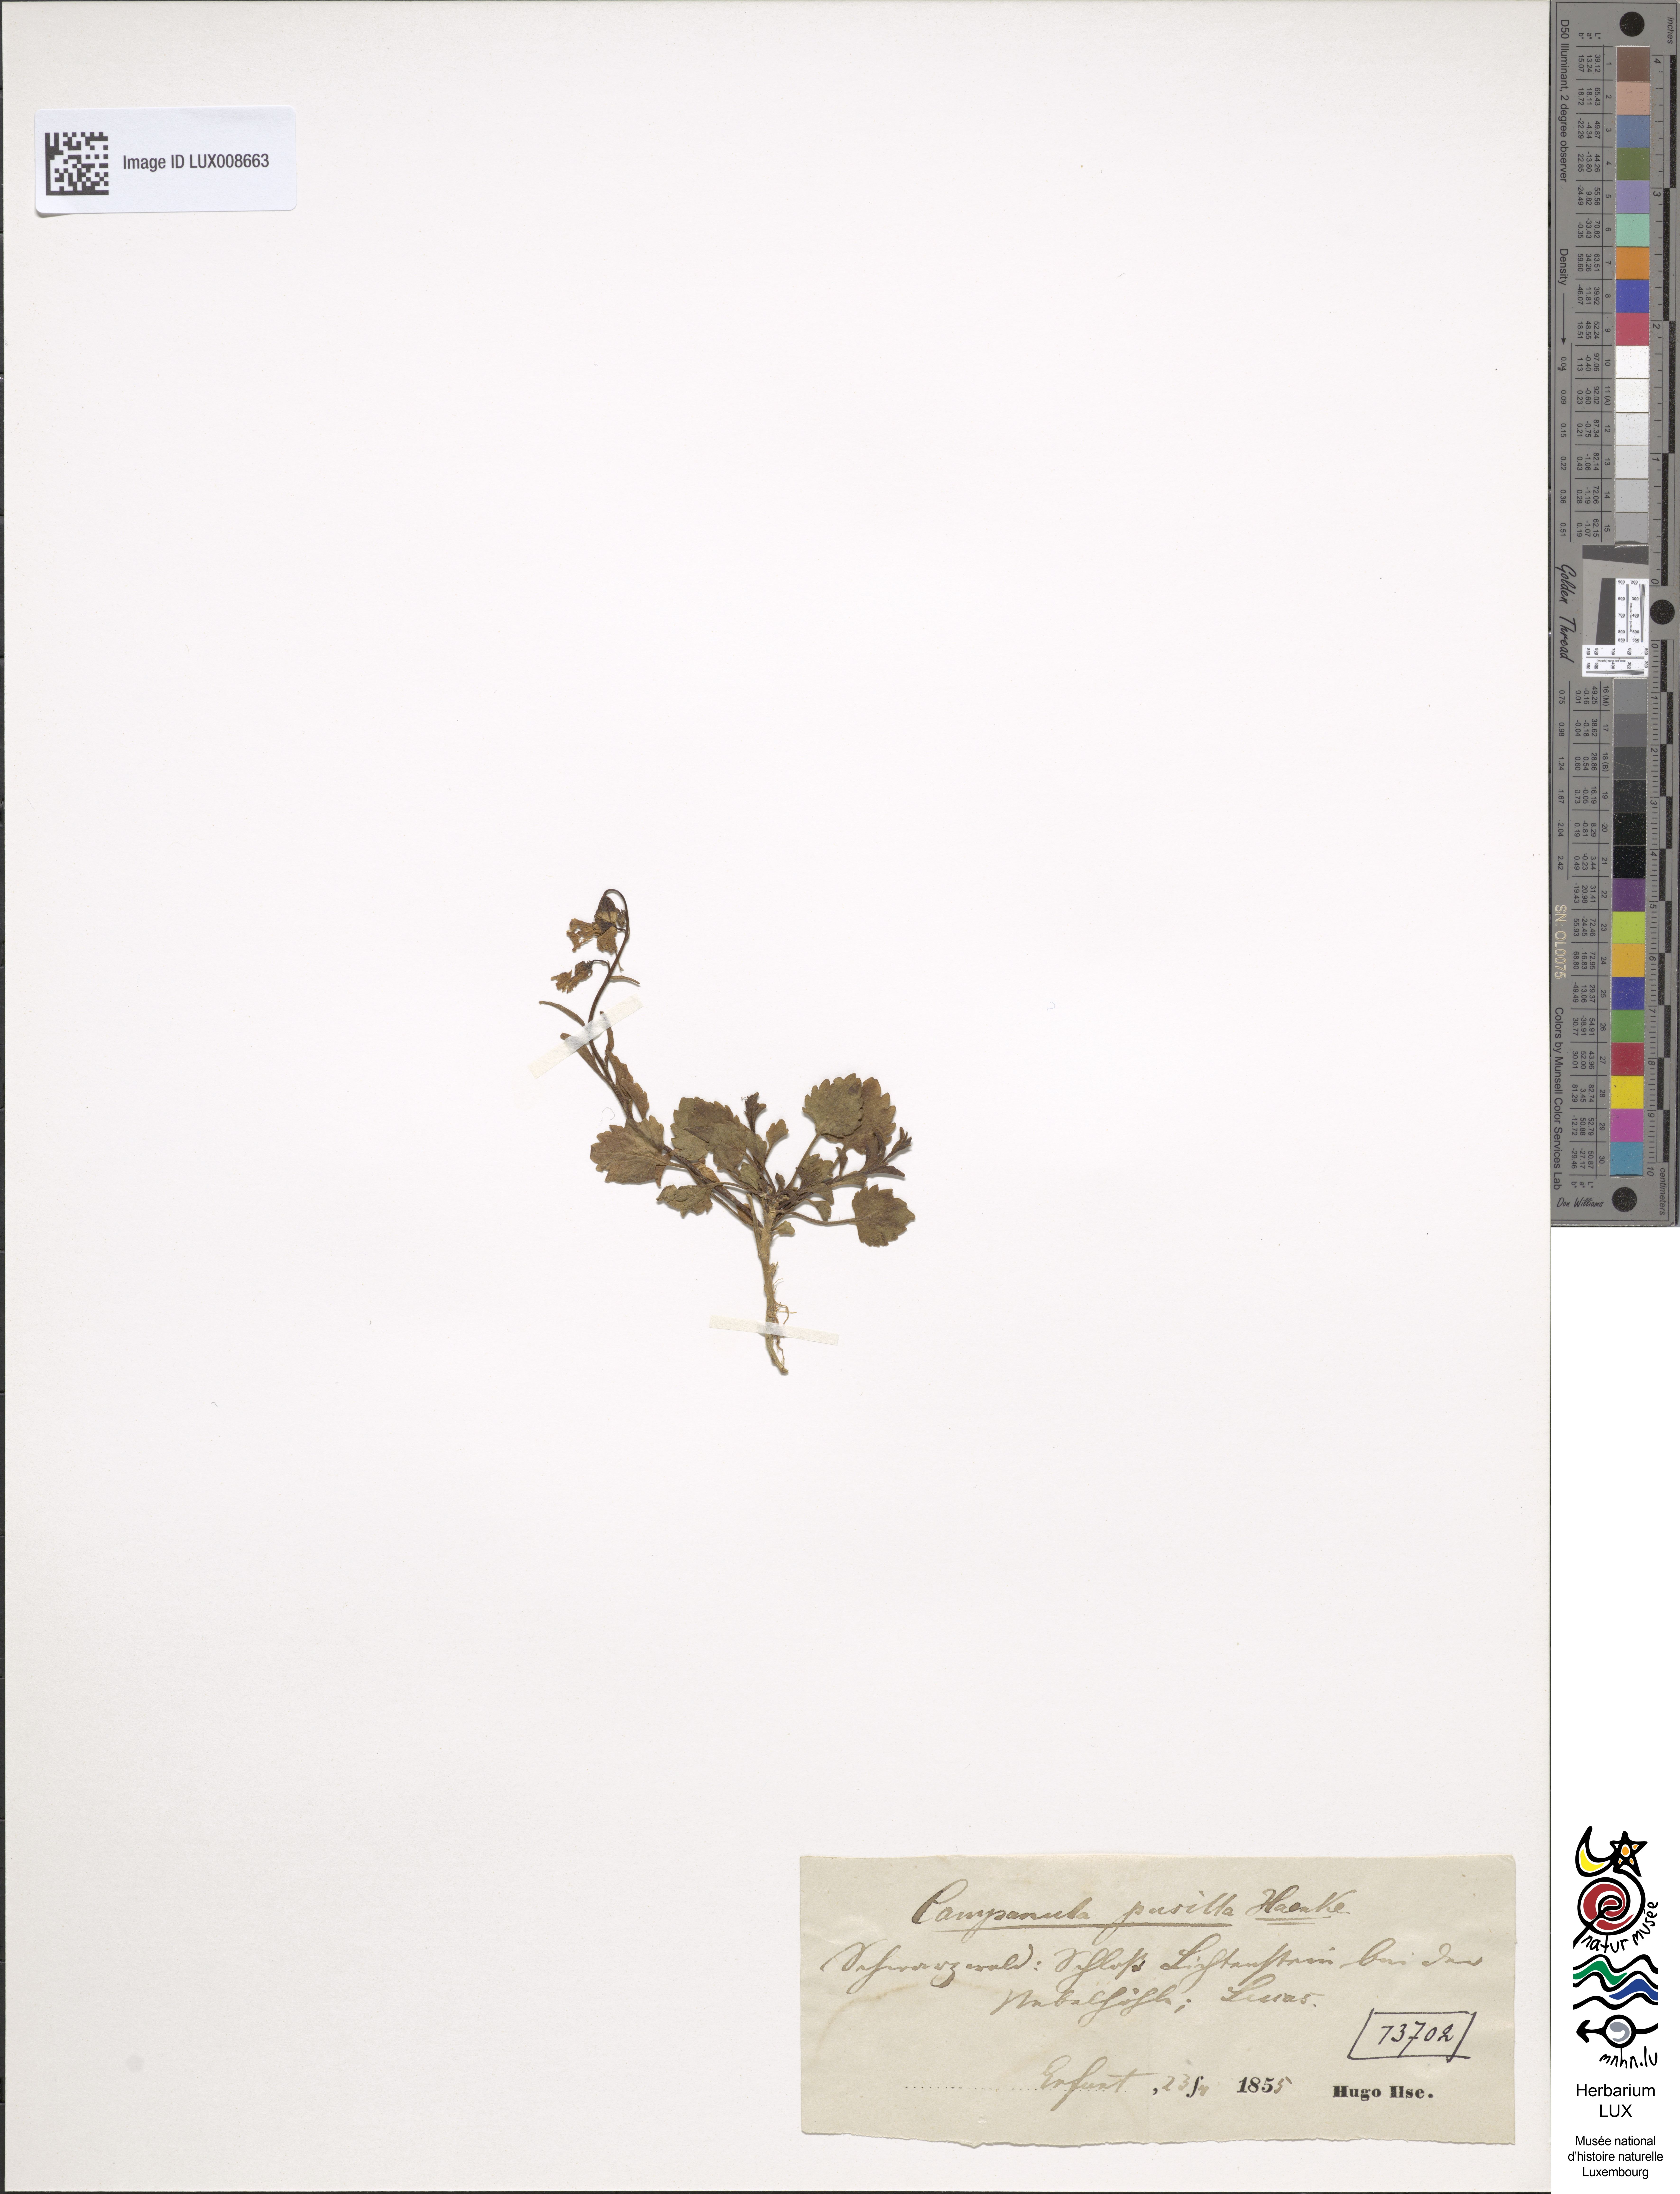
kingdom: Plantae
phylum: Tracheophyta
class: Magnoliopsida
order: Asterales
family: Campanulaceae
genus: Campanula
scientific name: Campanula cochleariifolia
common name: Fairies'-thimbles
